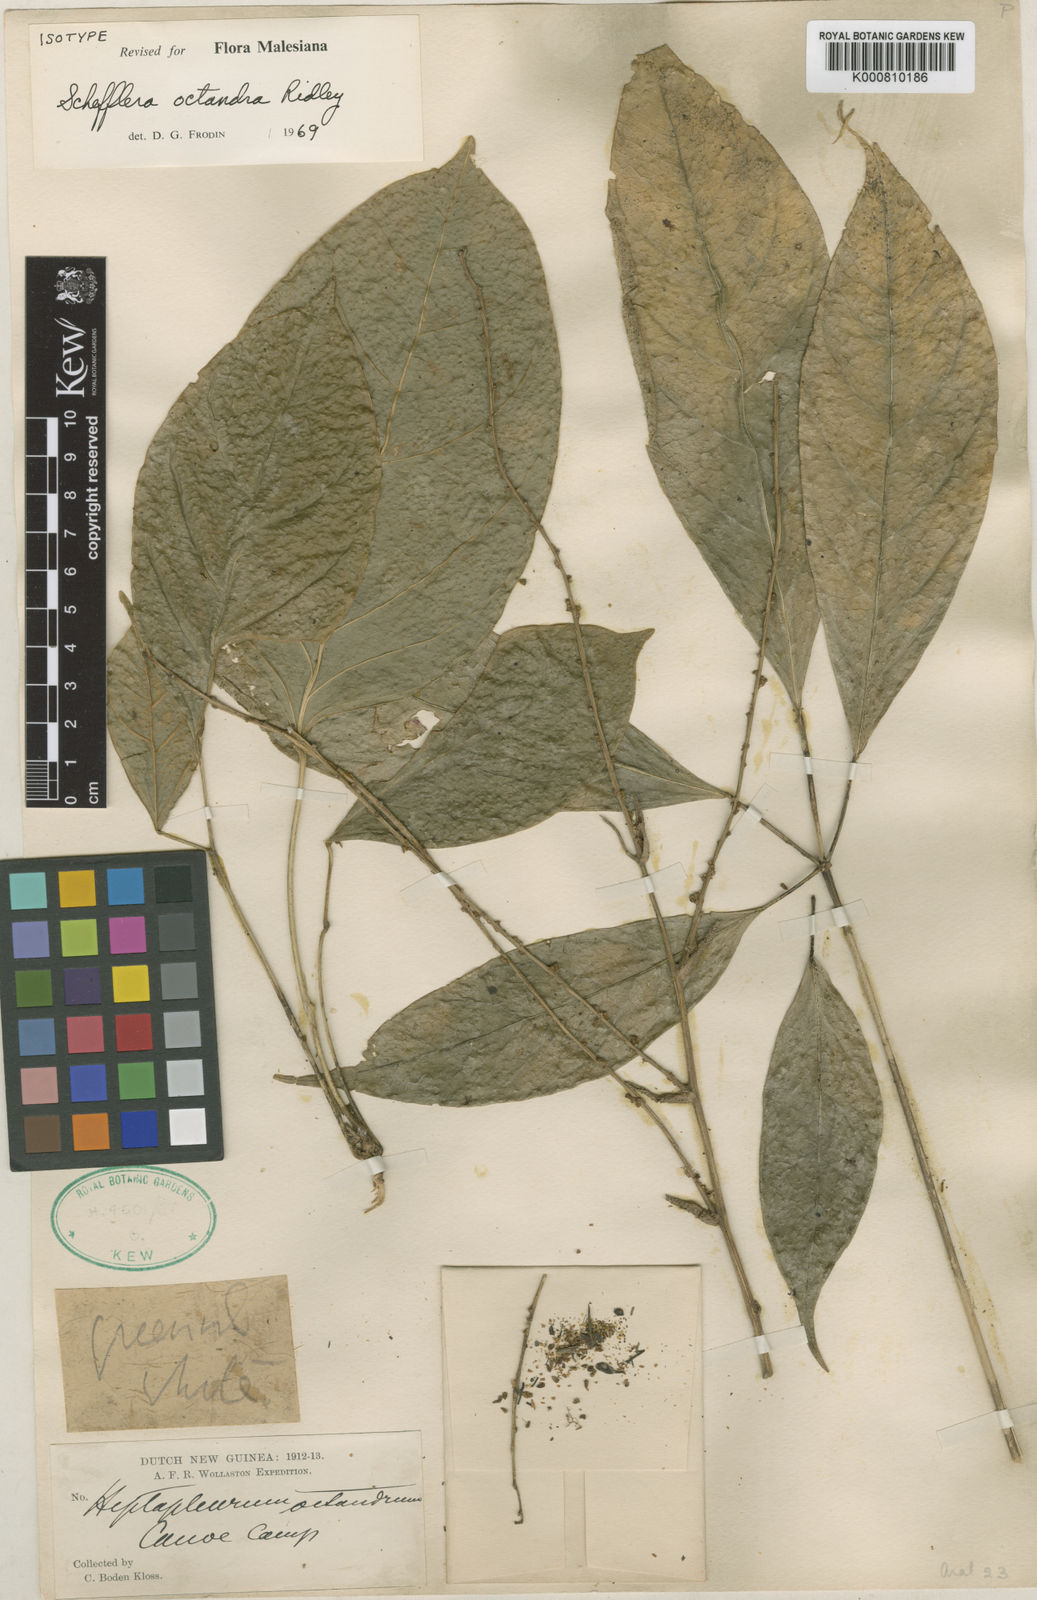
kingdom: Plantae
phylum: Tracheophyta
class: Magnoliopsida
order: Apiales
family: Araliaceae
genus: Heptapleurum
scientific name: Heptapleurum octandrum
